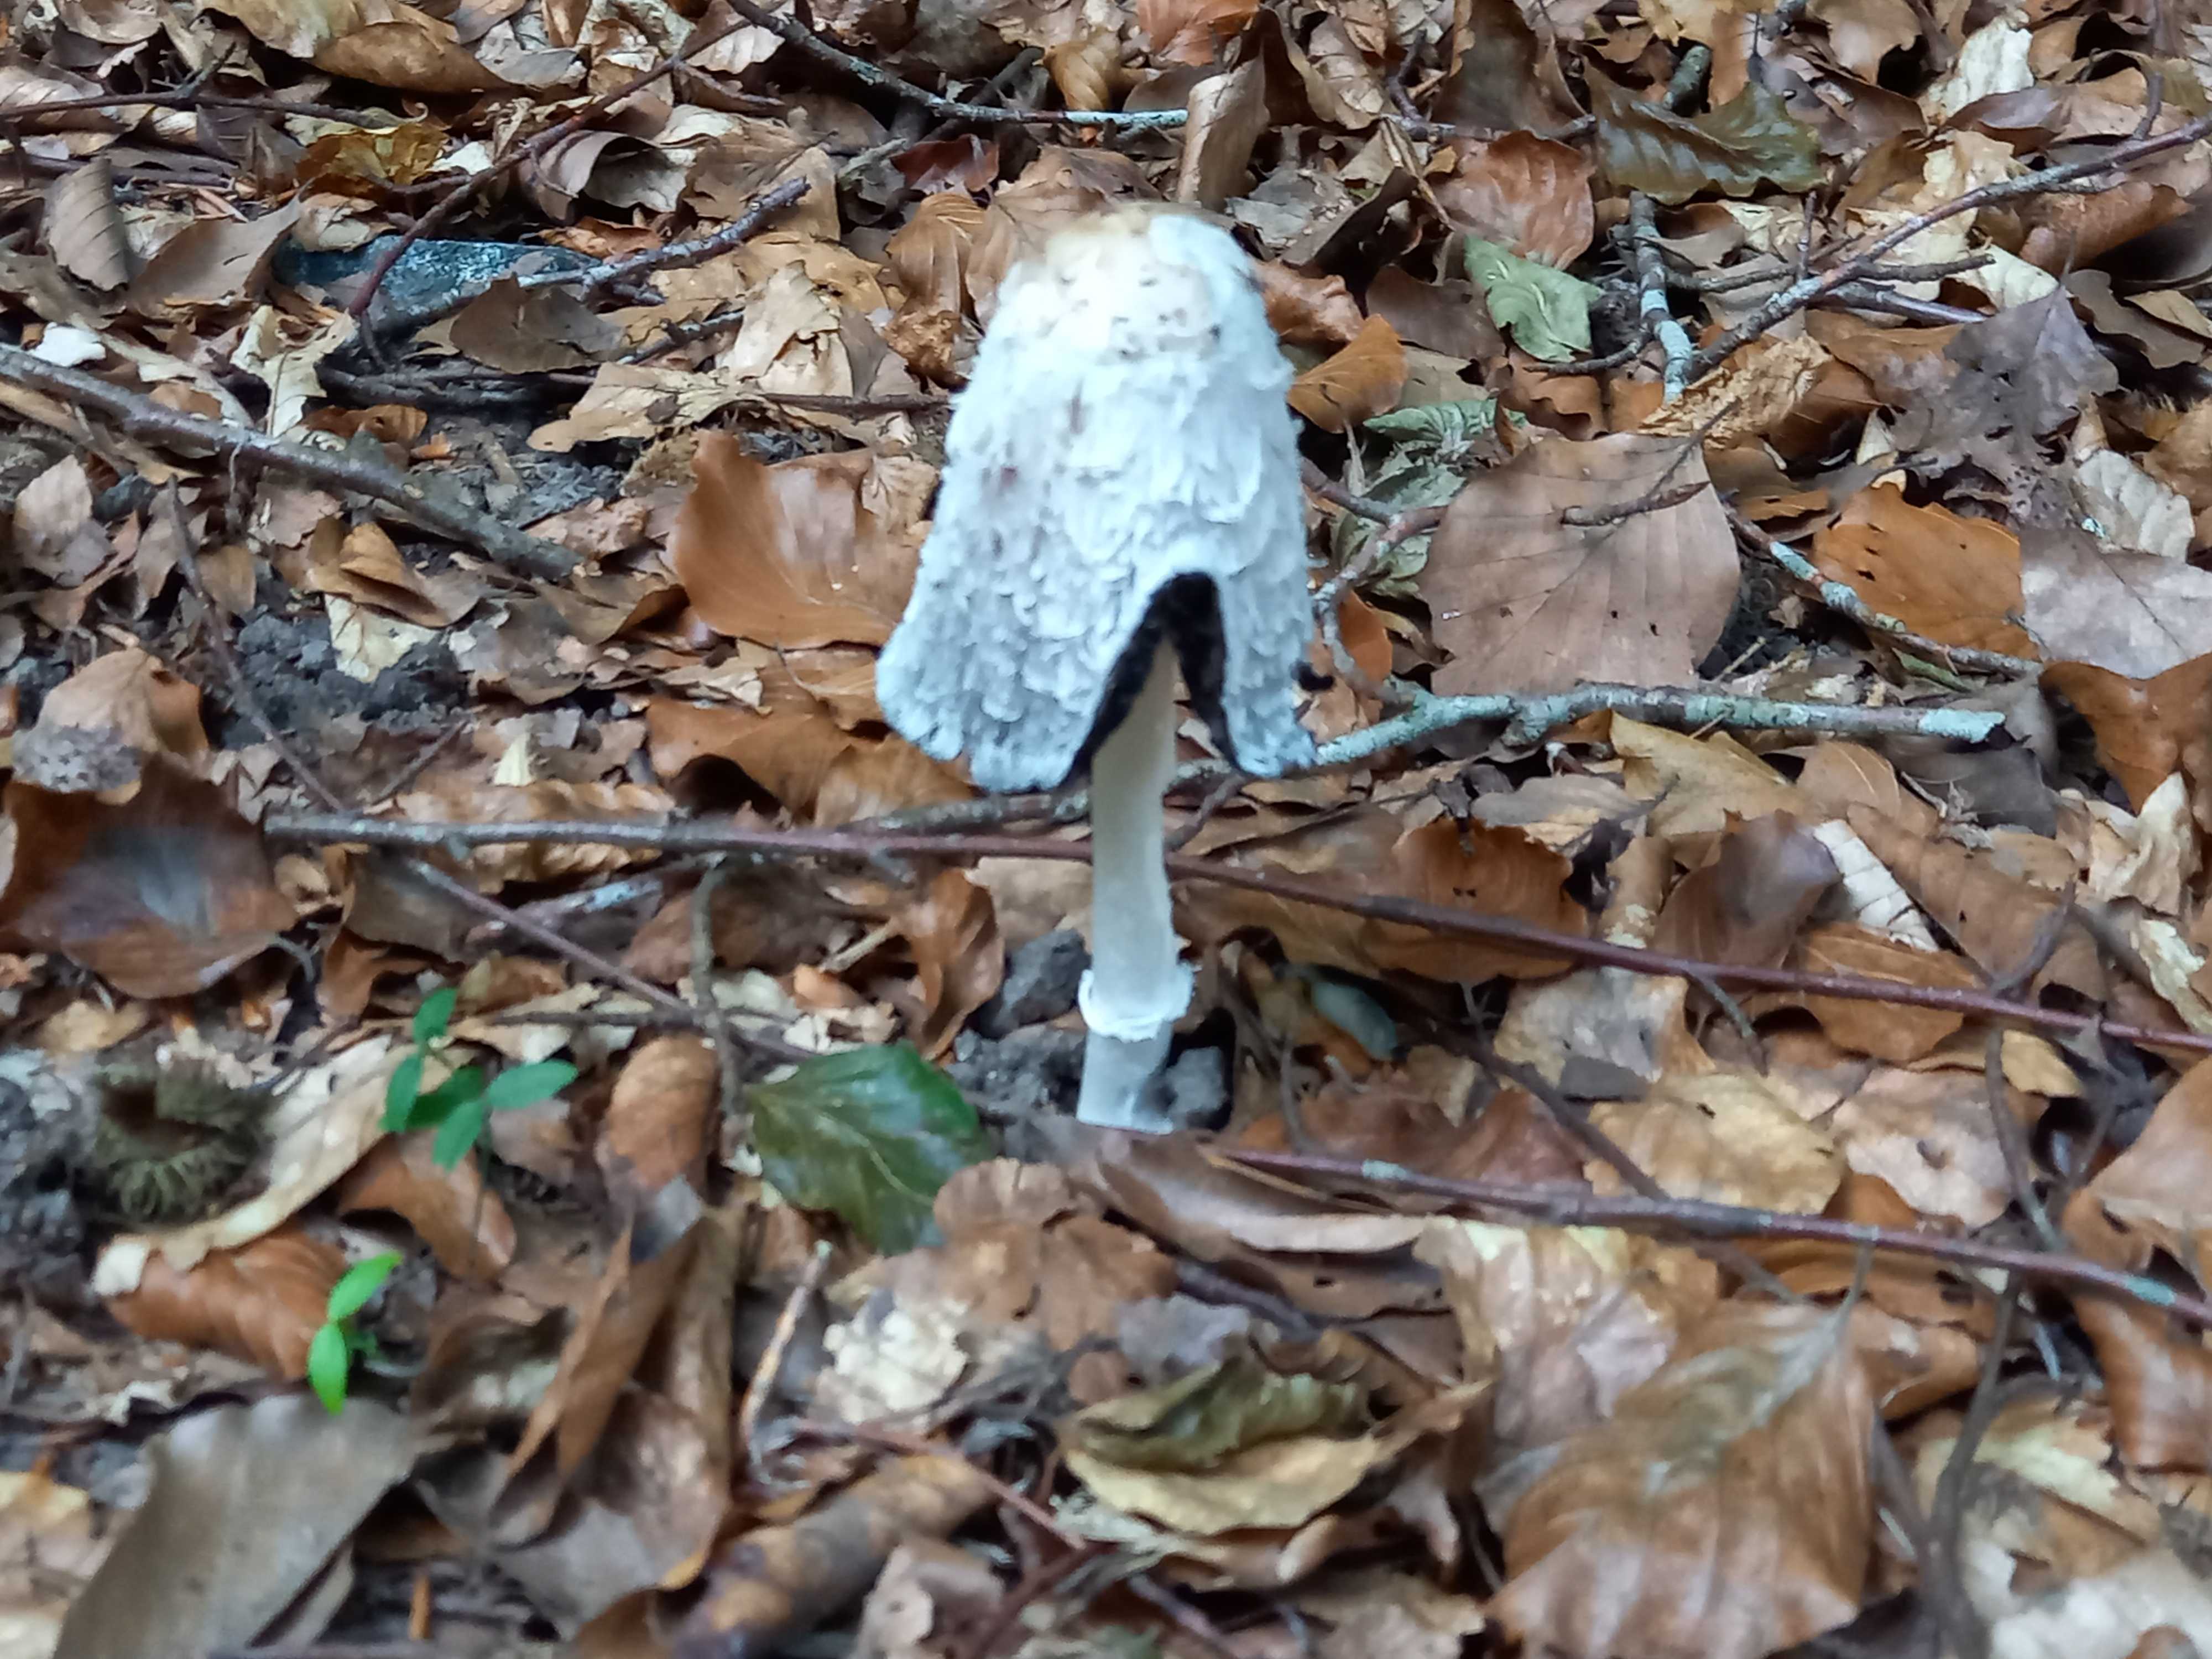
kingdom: Fungi
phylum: Basidiomycota
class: Agaricomycetes
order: Agaricales
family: Agaricaceae
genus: Coprinus
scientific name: Coprinus comatus
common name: stor parykhat
